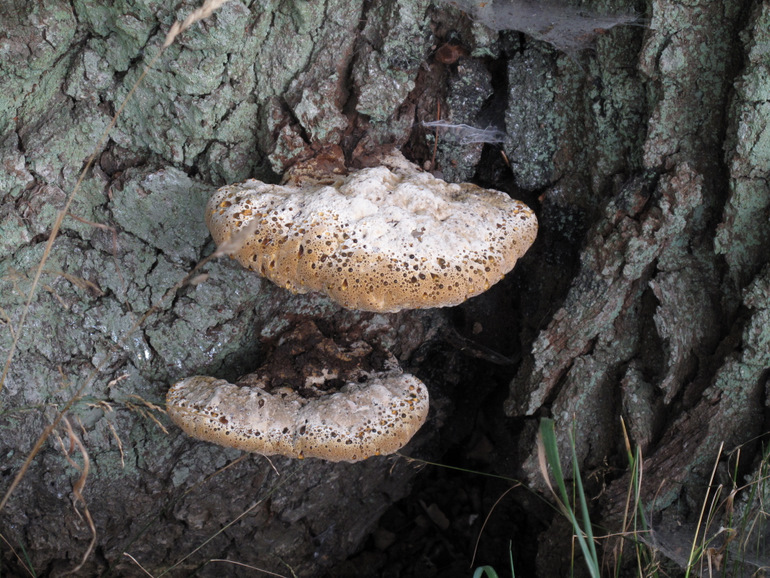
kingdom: Fungi
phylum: Basidiomycota
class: Agaricomycetes
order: Hymenochaetales
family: Hymenochaetaceae
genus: Pseudoinonotus
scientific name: Pseudoinonotus dryadeus
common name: ege-spejlporesvamp
